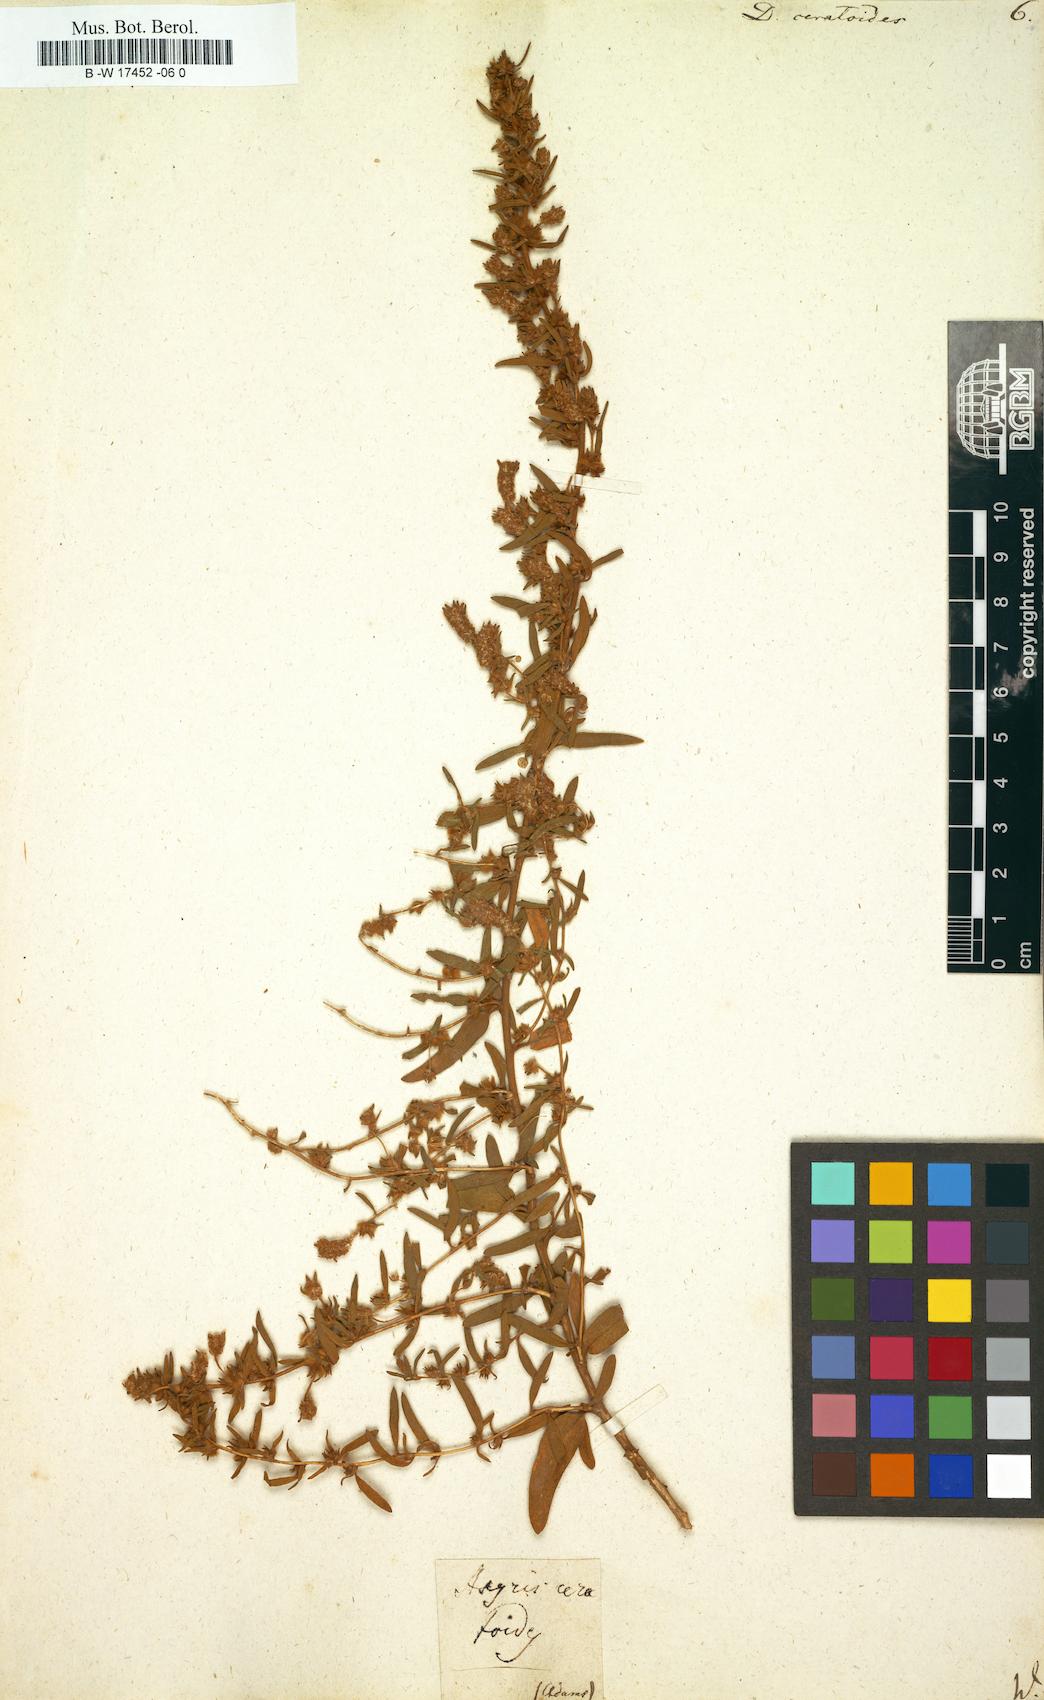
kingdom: Plantae
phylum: Tracheophyta
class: Magnoliopsida
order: Caryophyllales
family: Amaranthaceae
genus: Krascheninnikovia
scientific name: Krascheninnikovia ceratoides
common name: Pamirian winterfat
